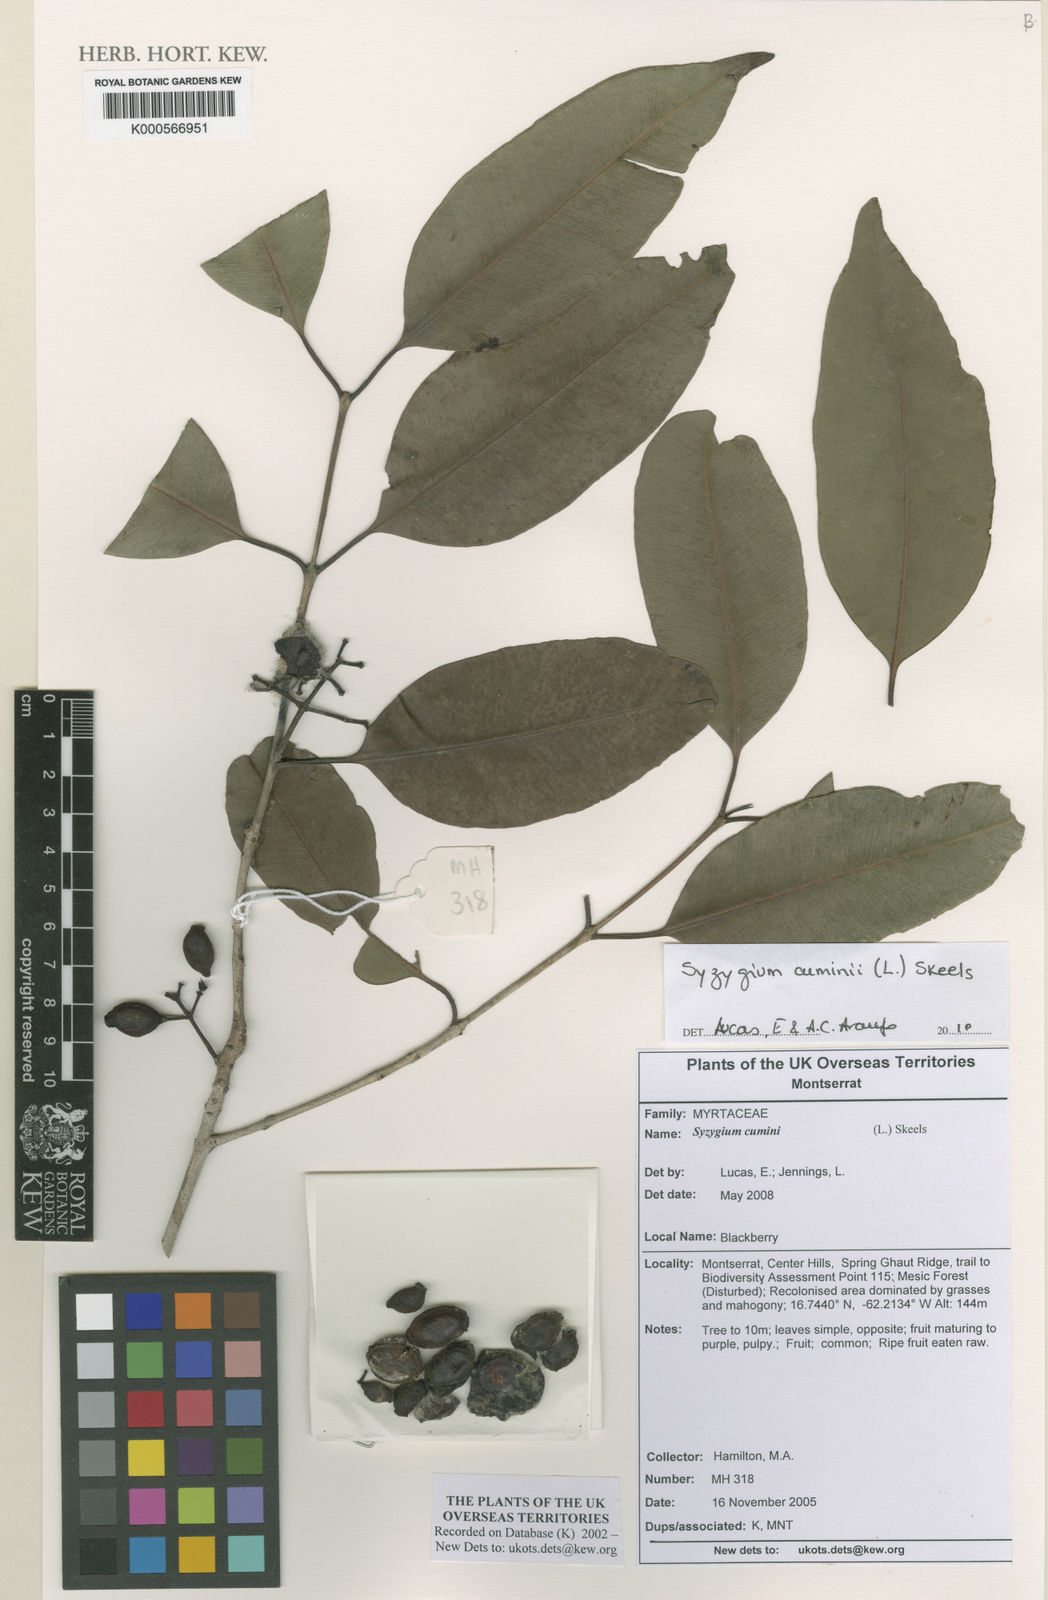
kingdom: Plantae
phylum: Tracheophyta
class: Magnoliopsida
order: Myrtales
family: Myrtaceae
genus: Syzygium
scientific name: Syzygium cumini
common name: Java plum
